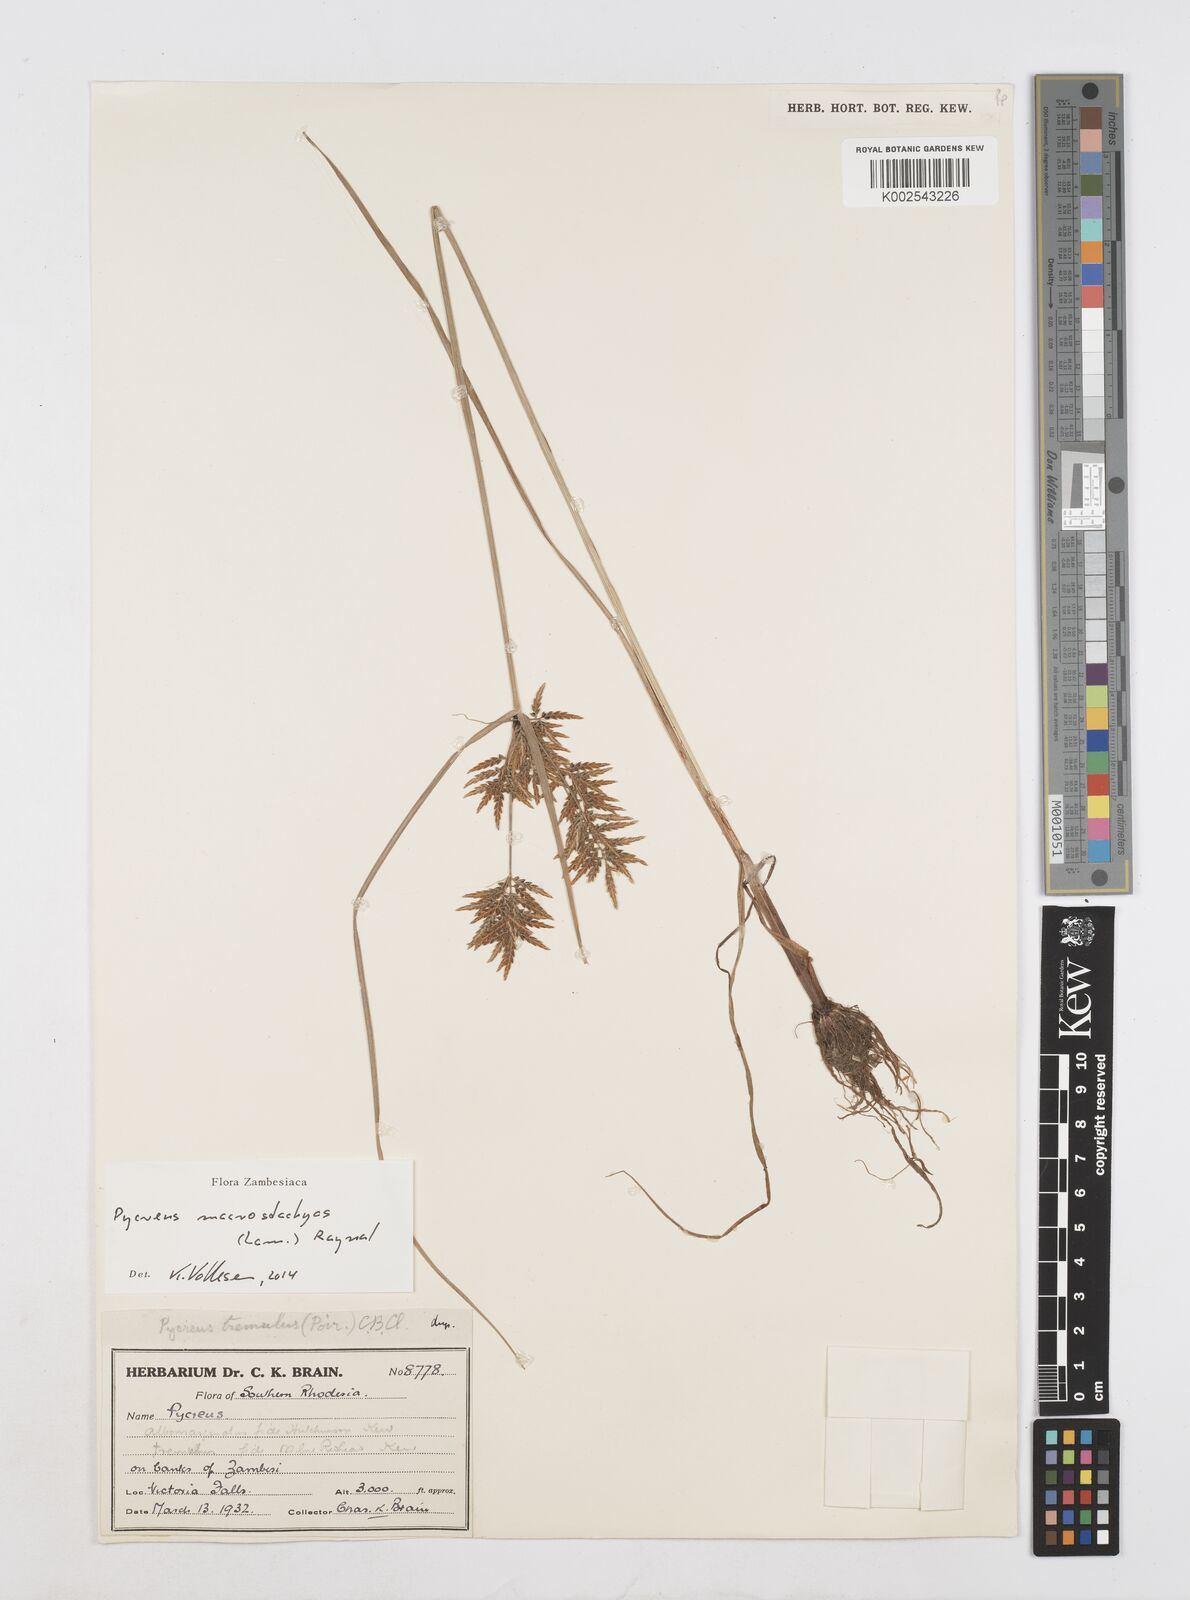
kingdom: Plantae
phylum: Tracheophyta
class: Liliopsida
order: Poales
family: Cyperaceae
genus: Cyperus
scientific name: Cyperus macrostachyos
